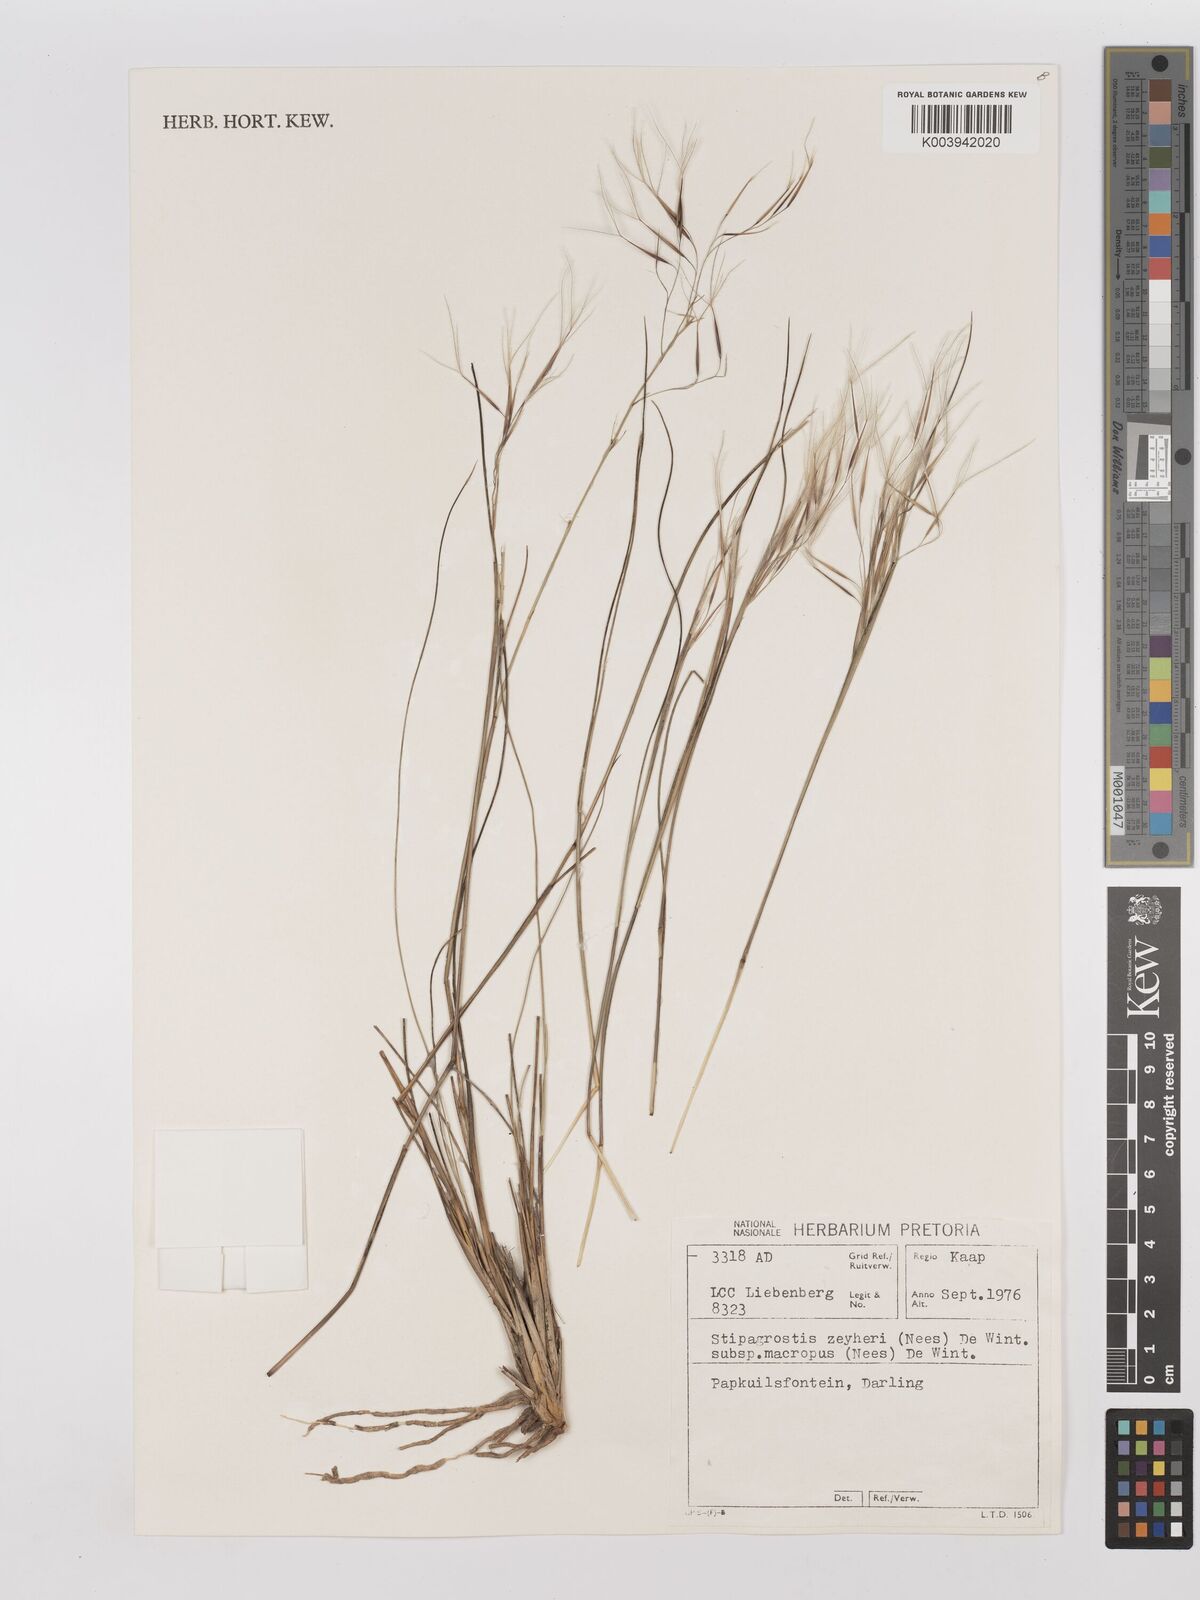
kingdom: Plantae
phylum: Tracheophyta
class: Liliopsida
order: Poales
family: Poaceae
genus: Stipagrostis
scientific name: Stipagrostis zeyheri
